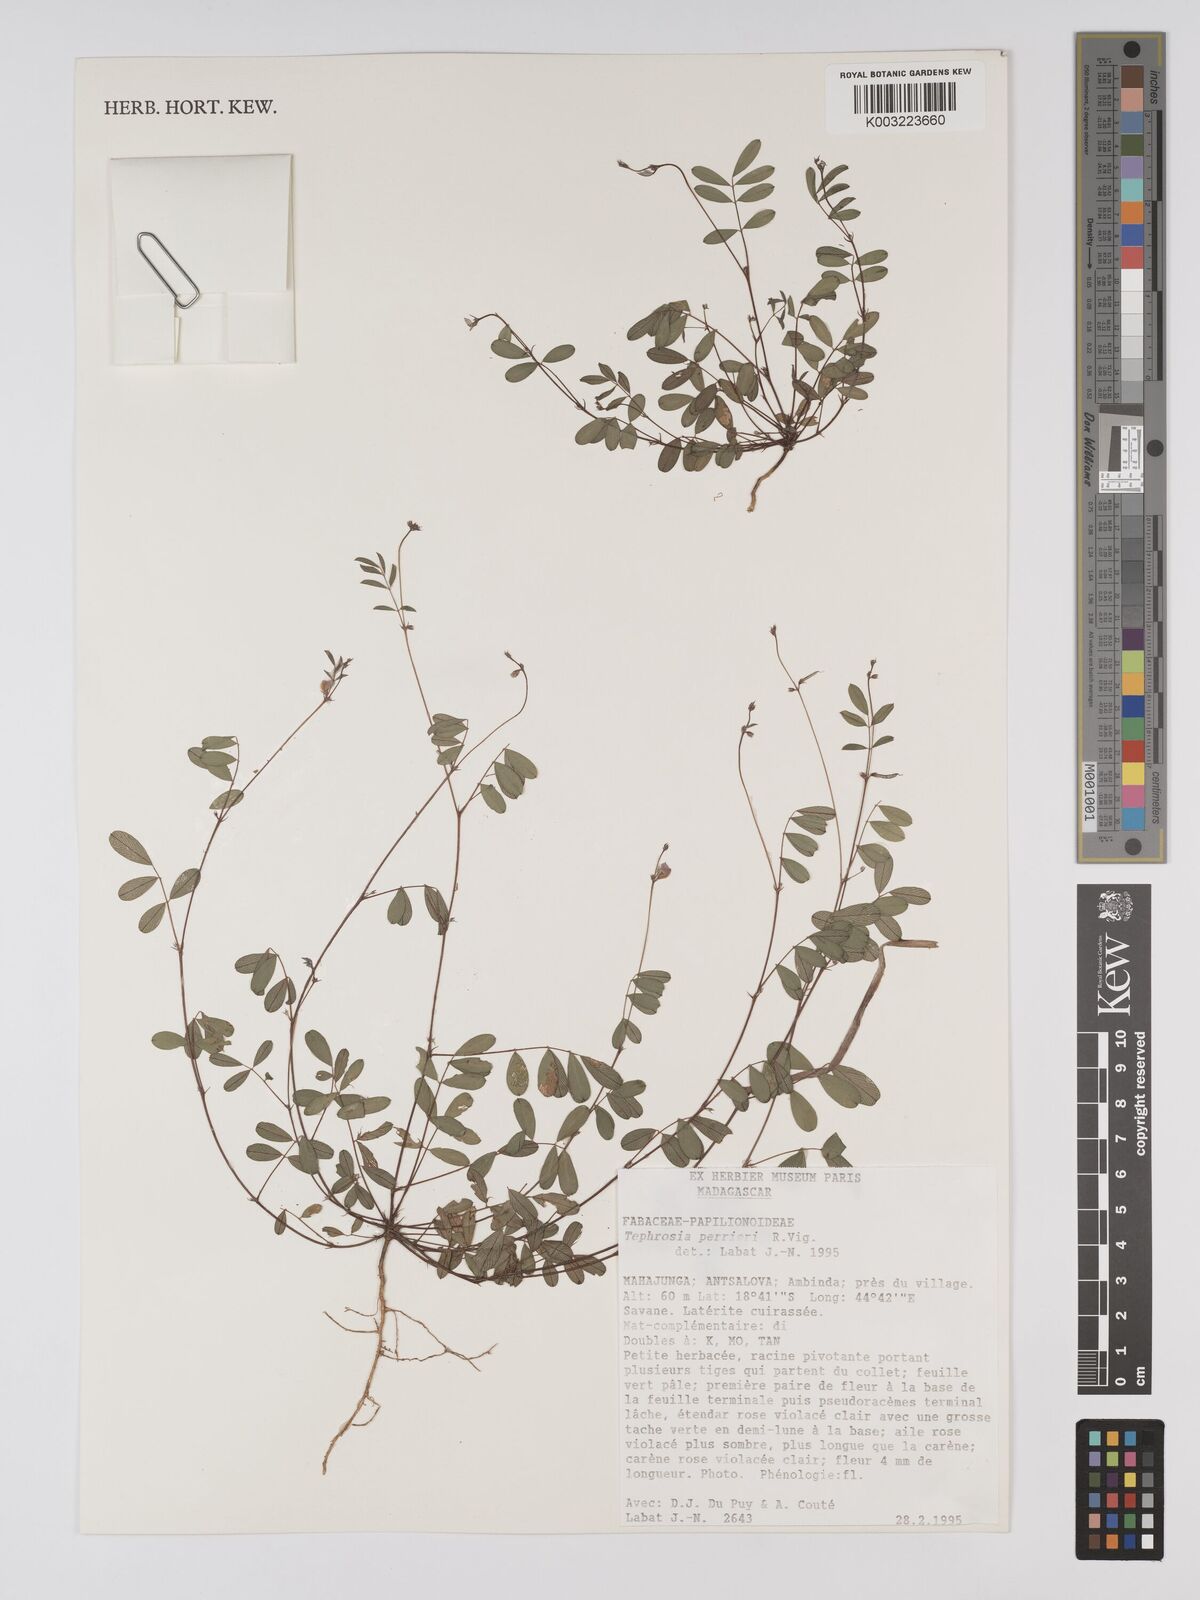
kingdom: Plantae
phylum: Tracheophyta
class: Magnoliopsida
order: Fabales
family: Fabaceae
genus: Tephrosia
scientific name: Tephrosia perrieri
